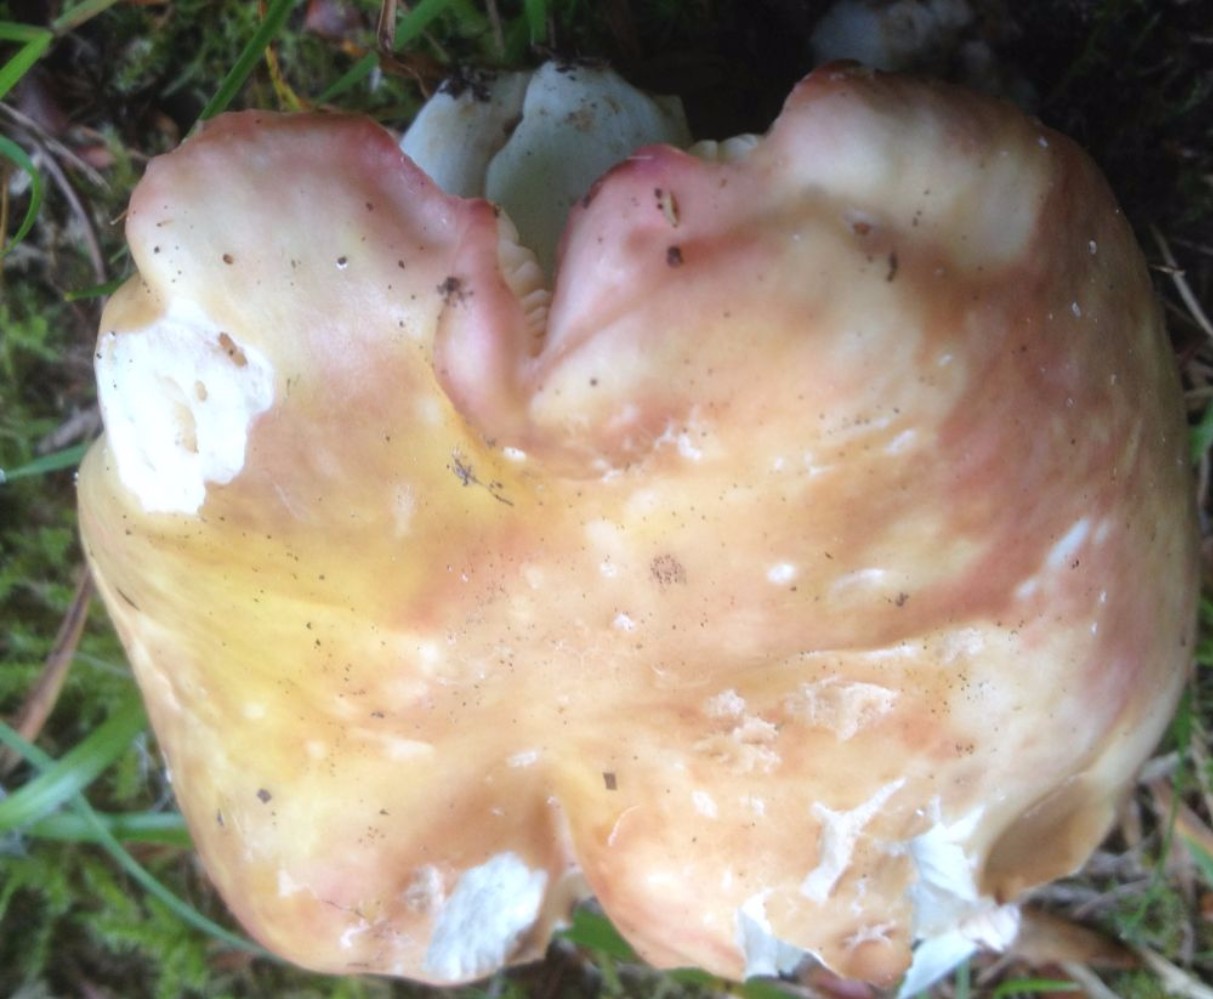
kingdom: Fungi
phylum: Basidiomycota
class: Agaricomycetes
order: Russulales
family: Russulaceae
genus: Russula
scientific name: Russula
